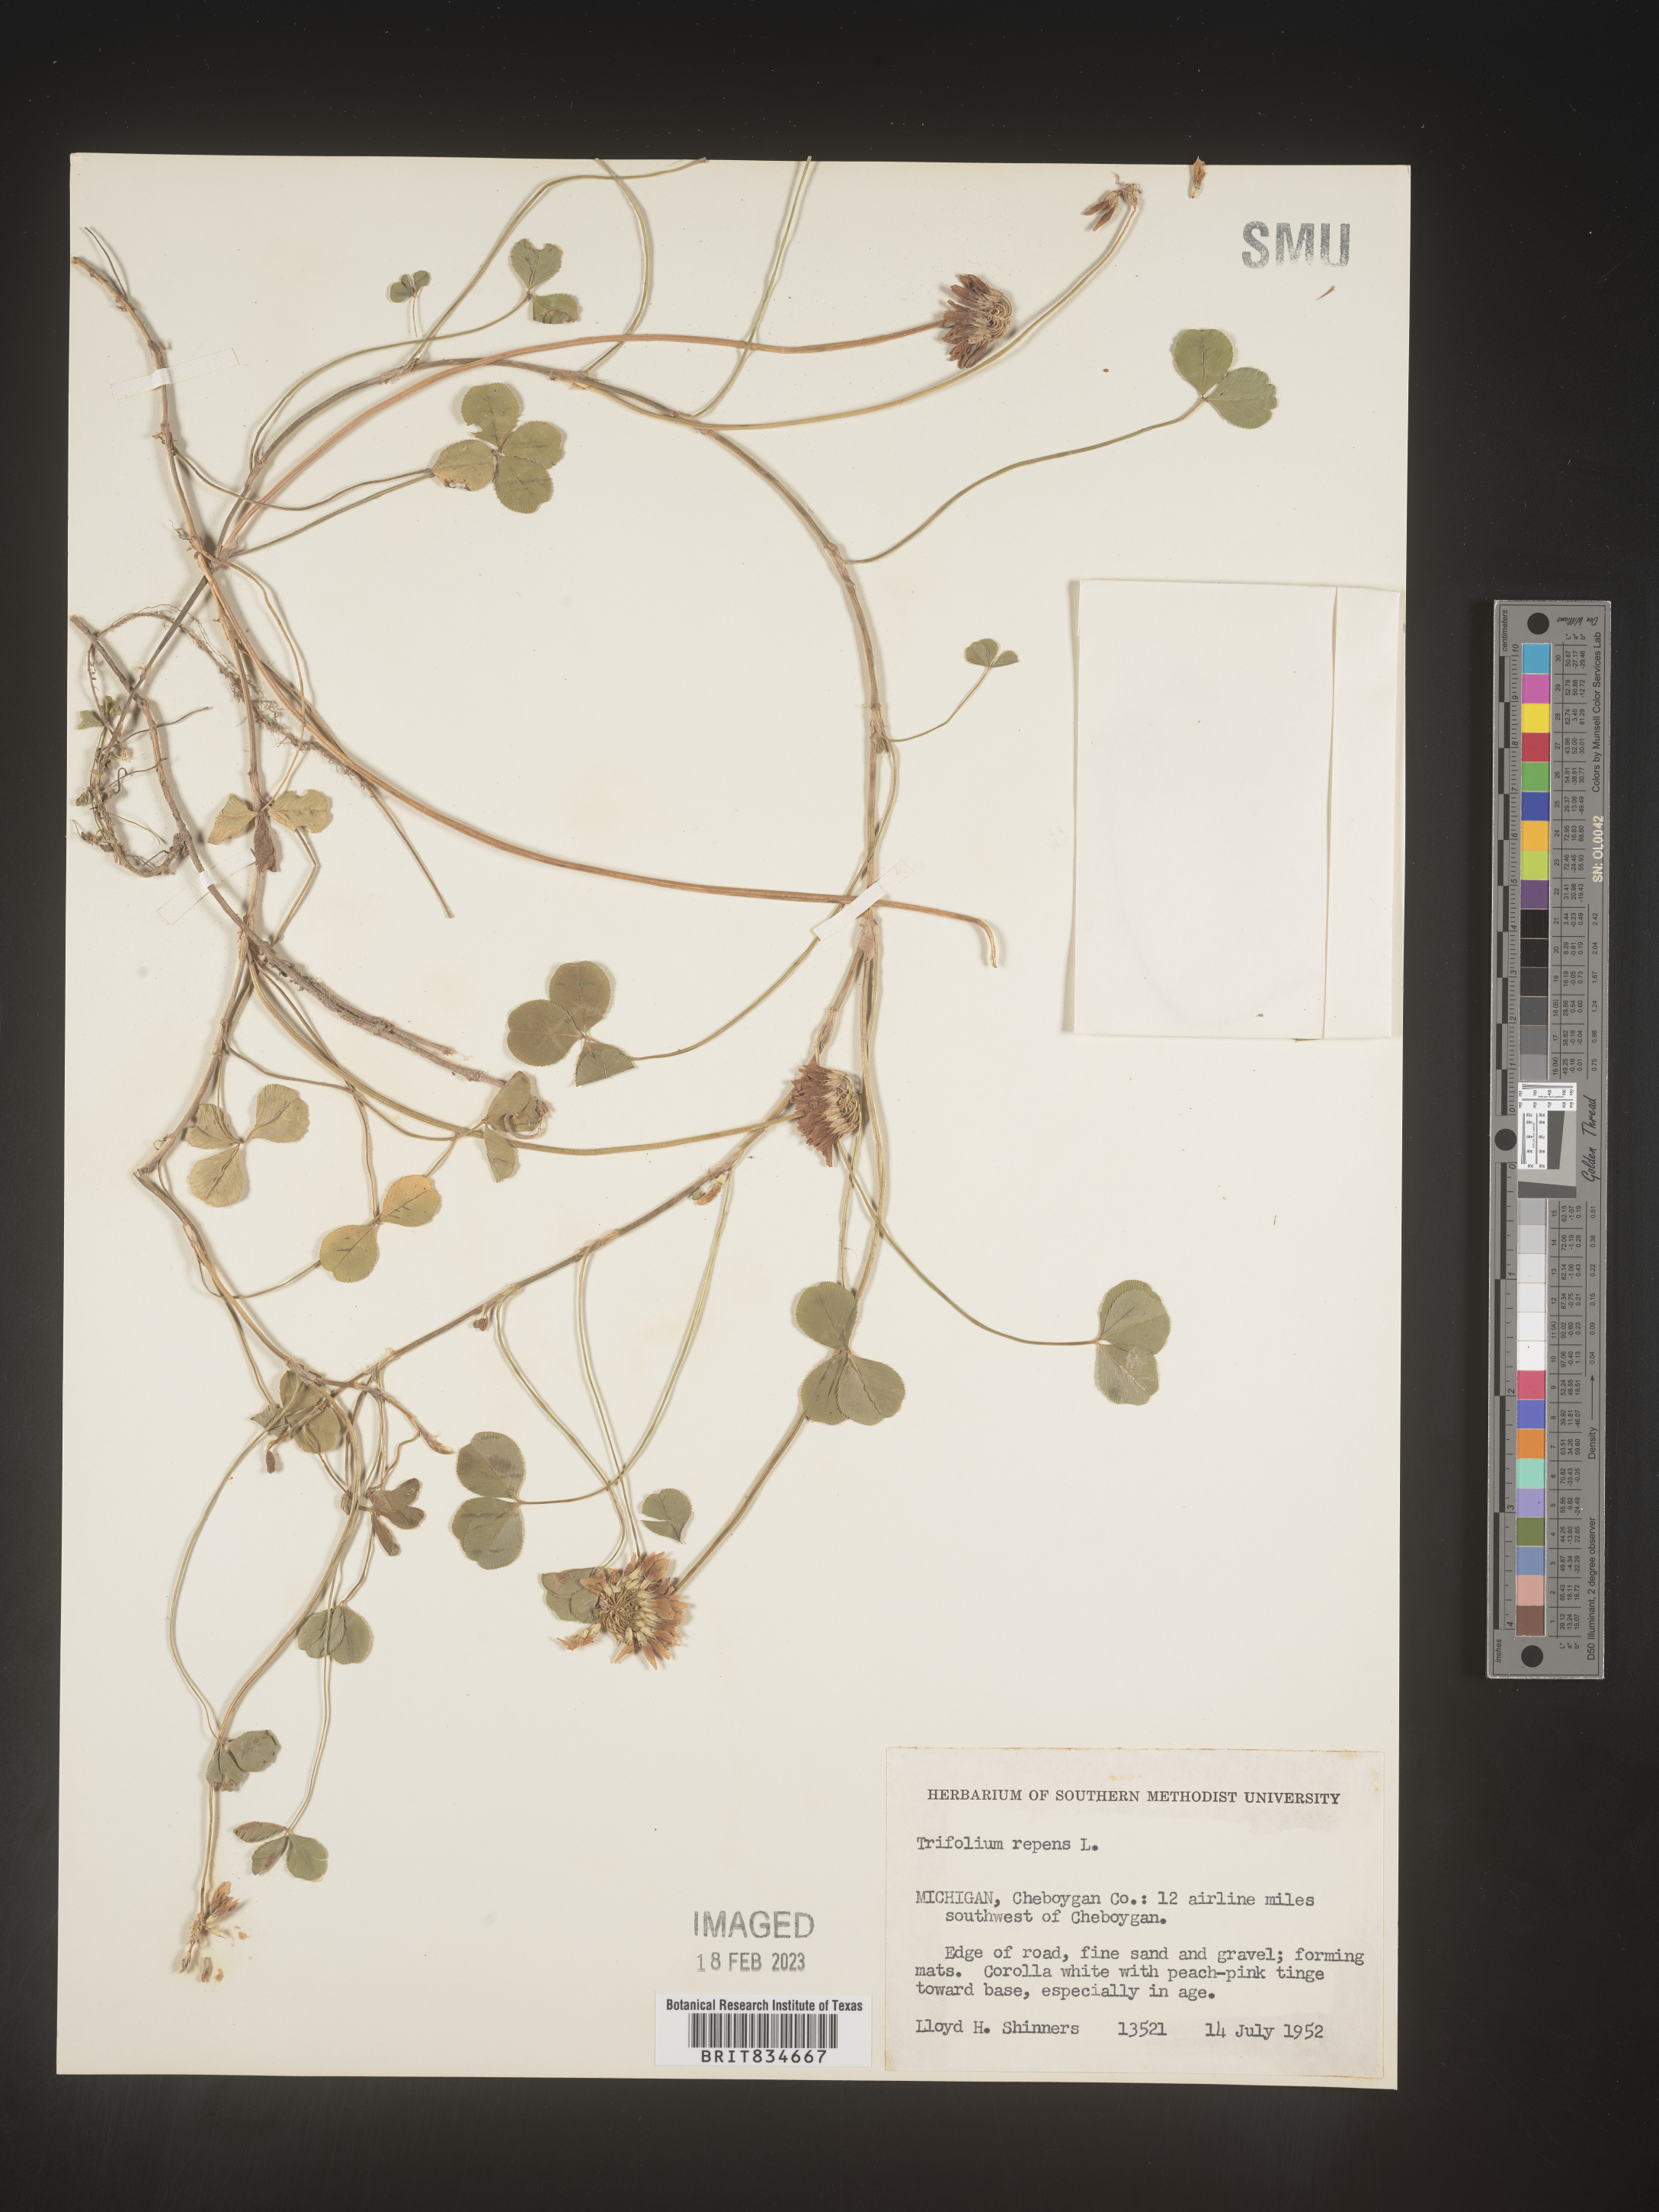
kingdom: Plantae
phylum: Tracheophyta
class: Magnoliopsida
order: Fabales
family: Fabaceae
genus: Trifolium
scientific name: Trifolium repens
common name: White clover
